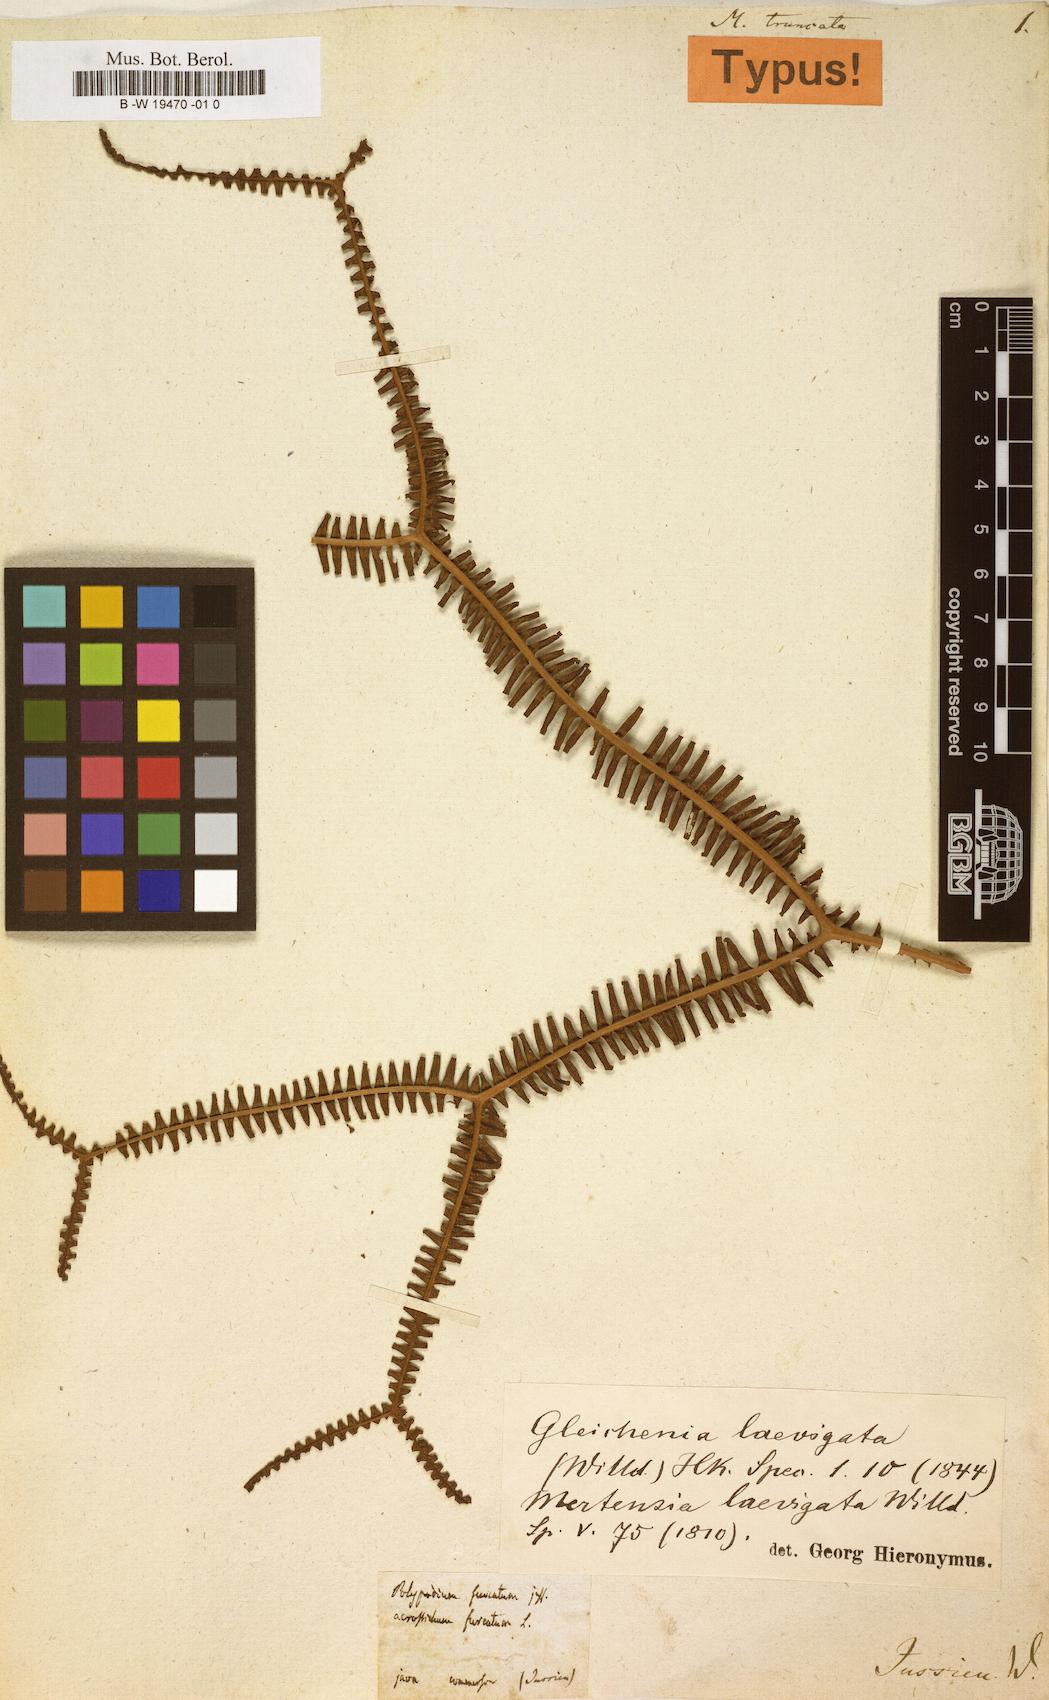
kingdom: Plantae
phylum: Tracheophyta
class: Polypodiopsida
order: Gleicheniales
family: Gleicheniaceae
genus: Sticherus
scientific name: Sticherus truncatus
